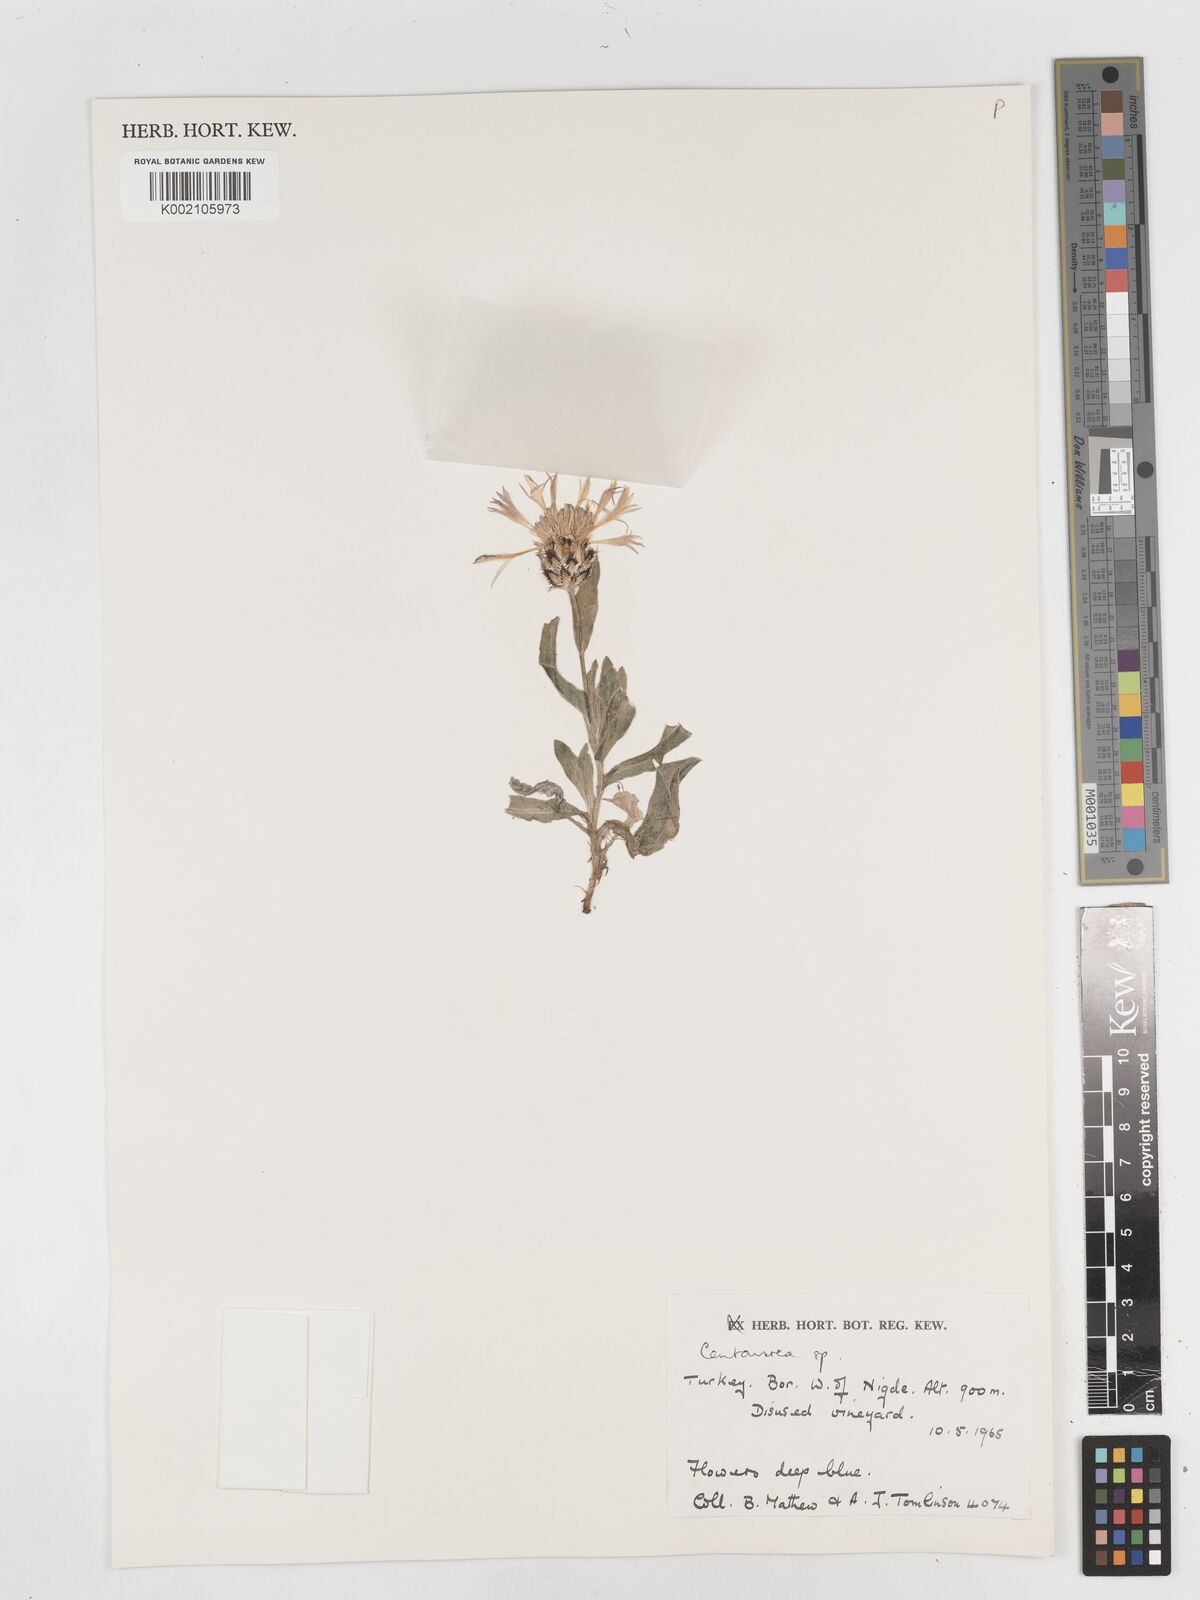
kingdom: Plantae
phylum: Tracheophyta
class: Magnoliopsida
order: Asterales
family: Asteraceae
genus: Centaurea
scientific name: Centaurea
